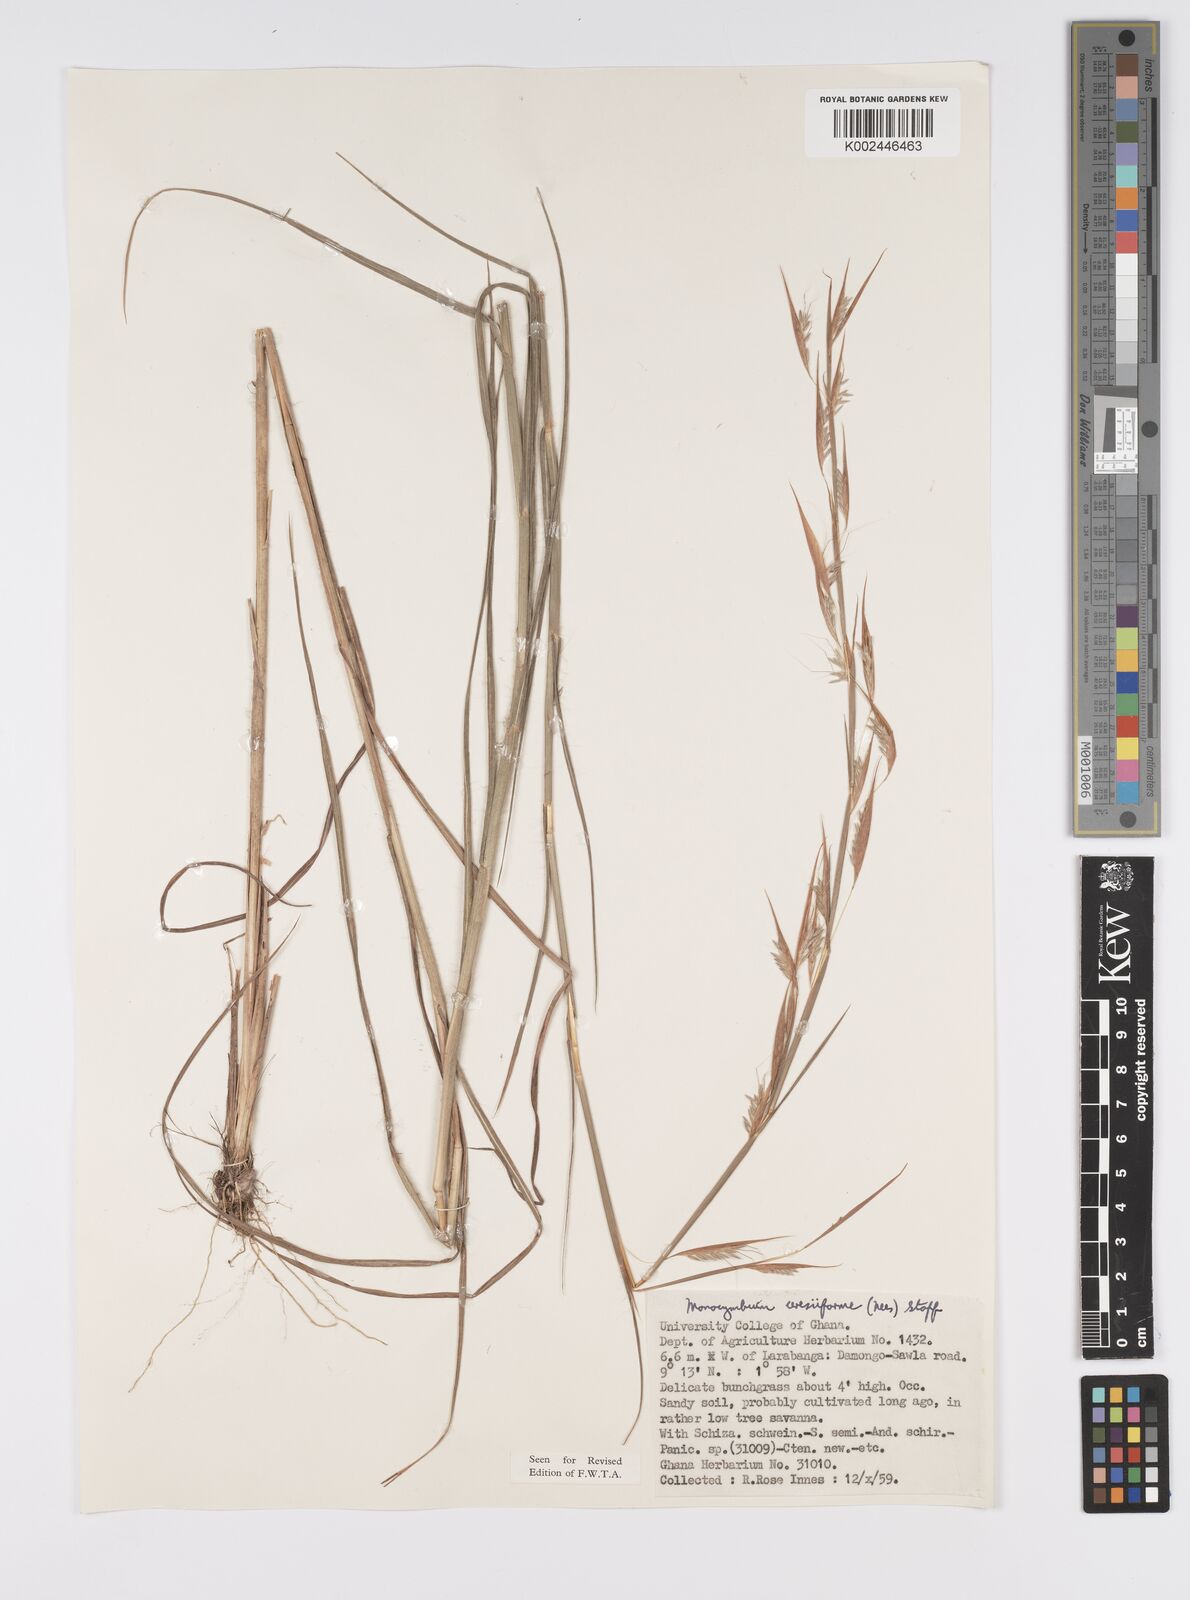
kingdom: Plantae
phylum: Tracheophyta
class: Liliopsida
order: Poales
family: Poaceae
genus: Monocymbium
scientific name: Monocymbium ceresiiforme
